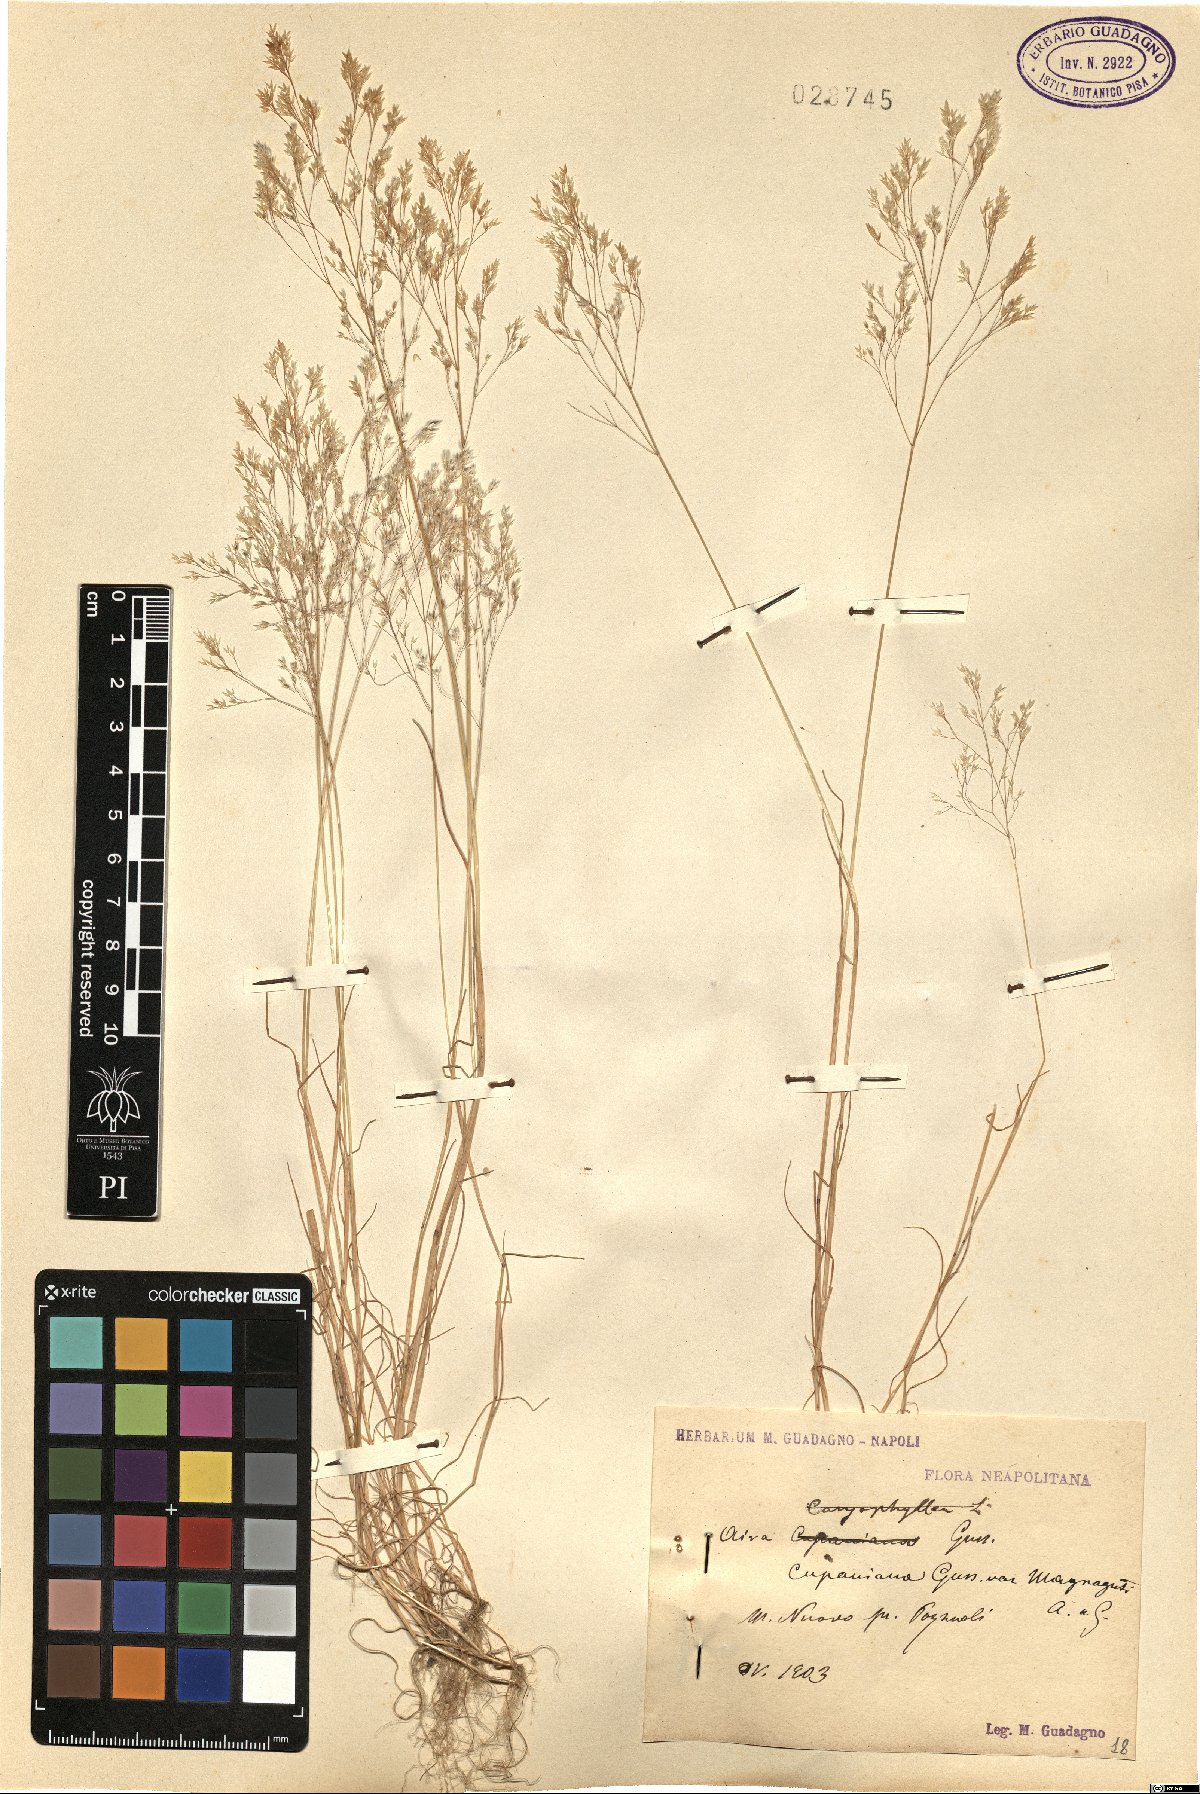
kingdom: Plantae
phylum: Tracheophyta
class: Liliopsida
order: Poales
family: Poaceae
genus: Aira
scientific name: Aira cupaniana
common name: Silver hairgrass
